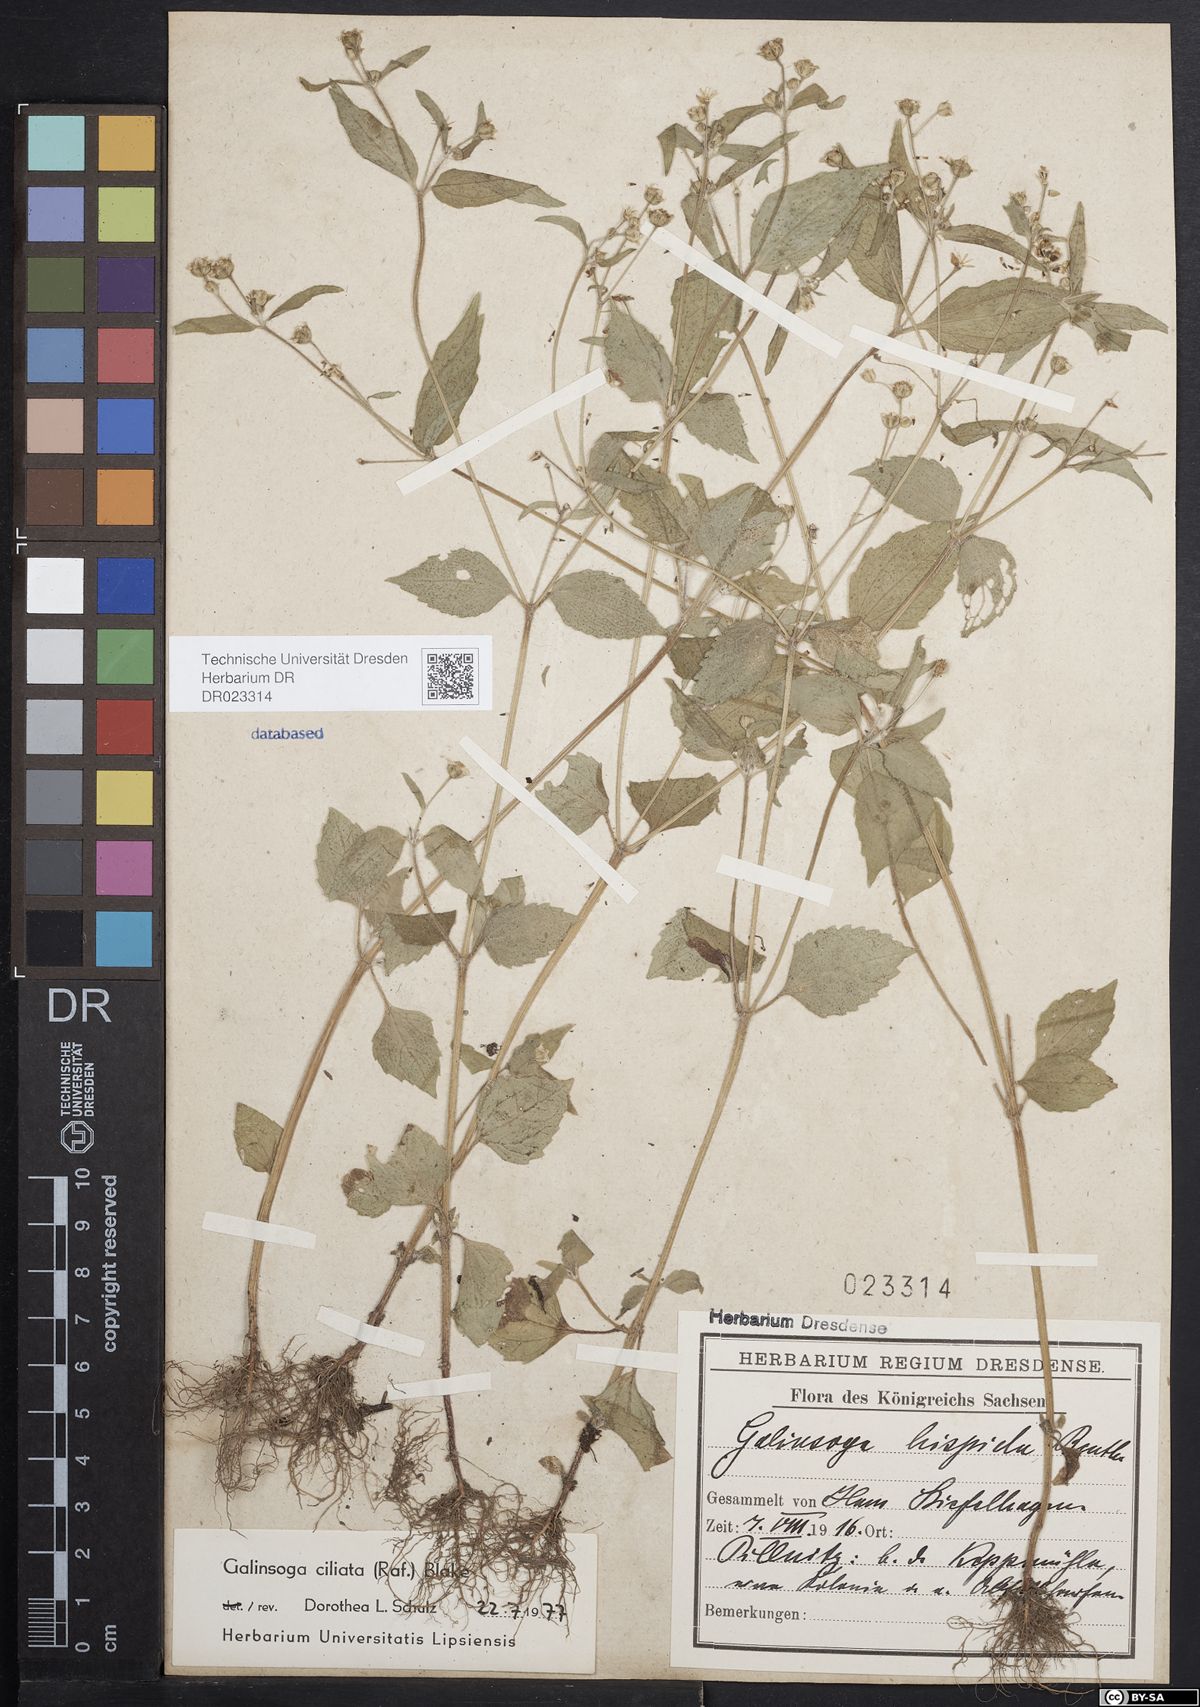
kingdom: Plantae
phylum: Tracheophyta
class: Magnoliopsida
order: Asterales
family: Asteraceae
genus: Galinsoga
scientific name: Galinsoga quadriradiata
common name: Shaggy soldier
